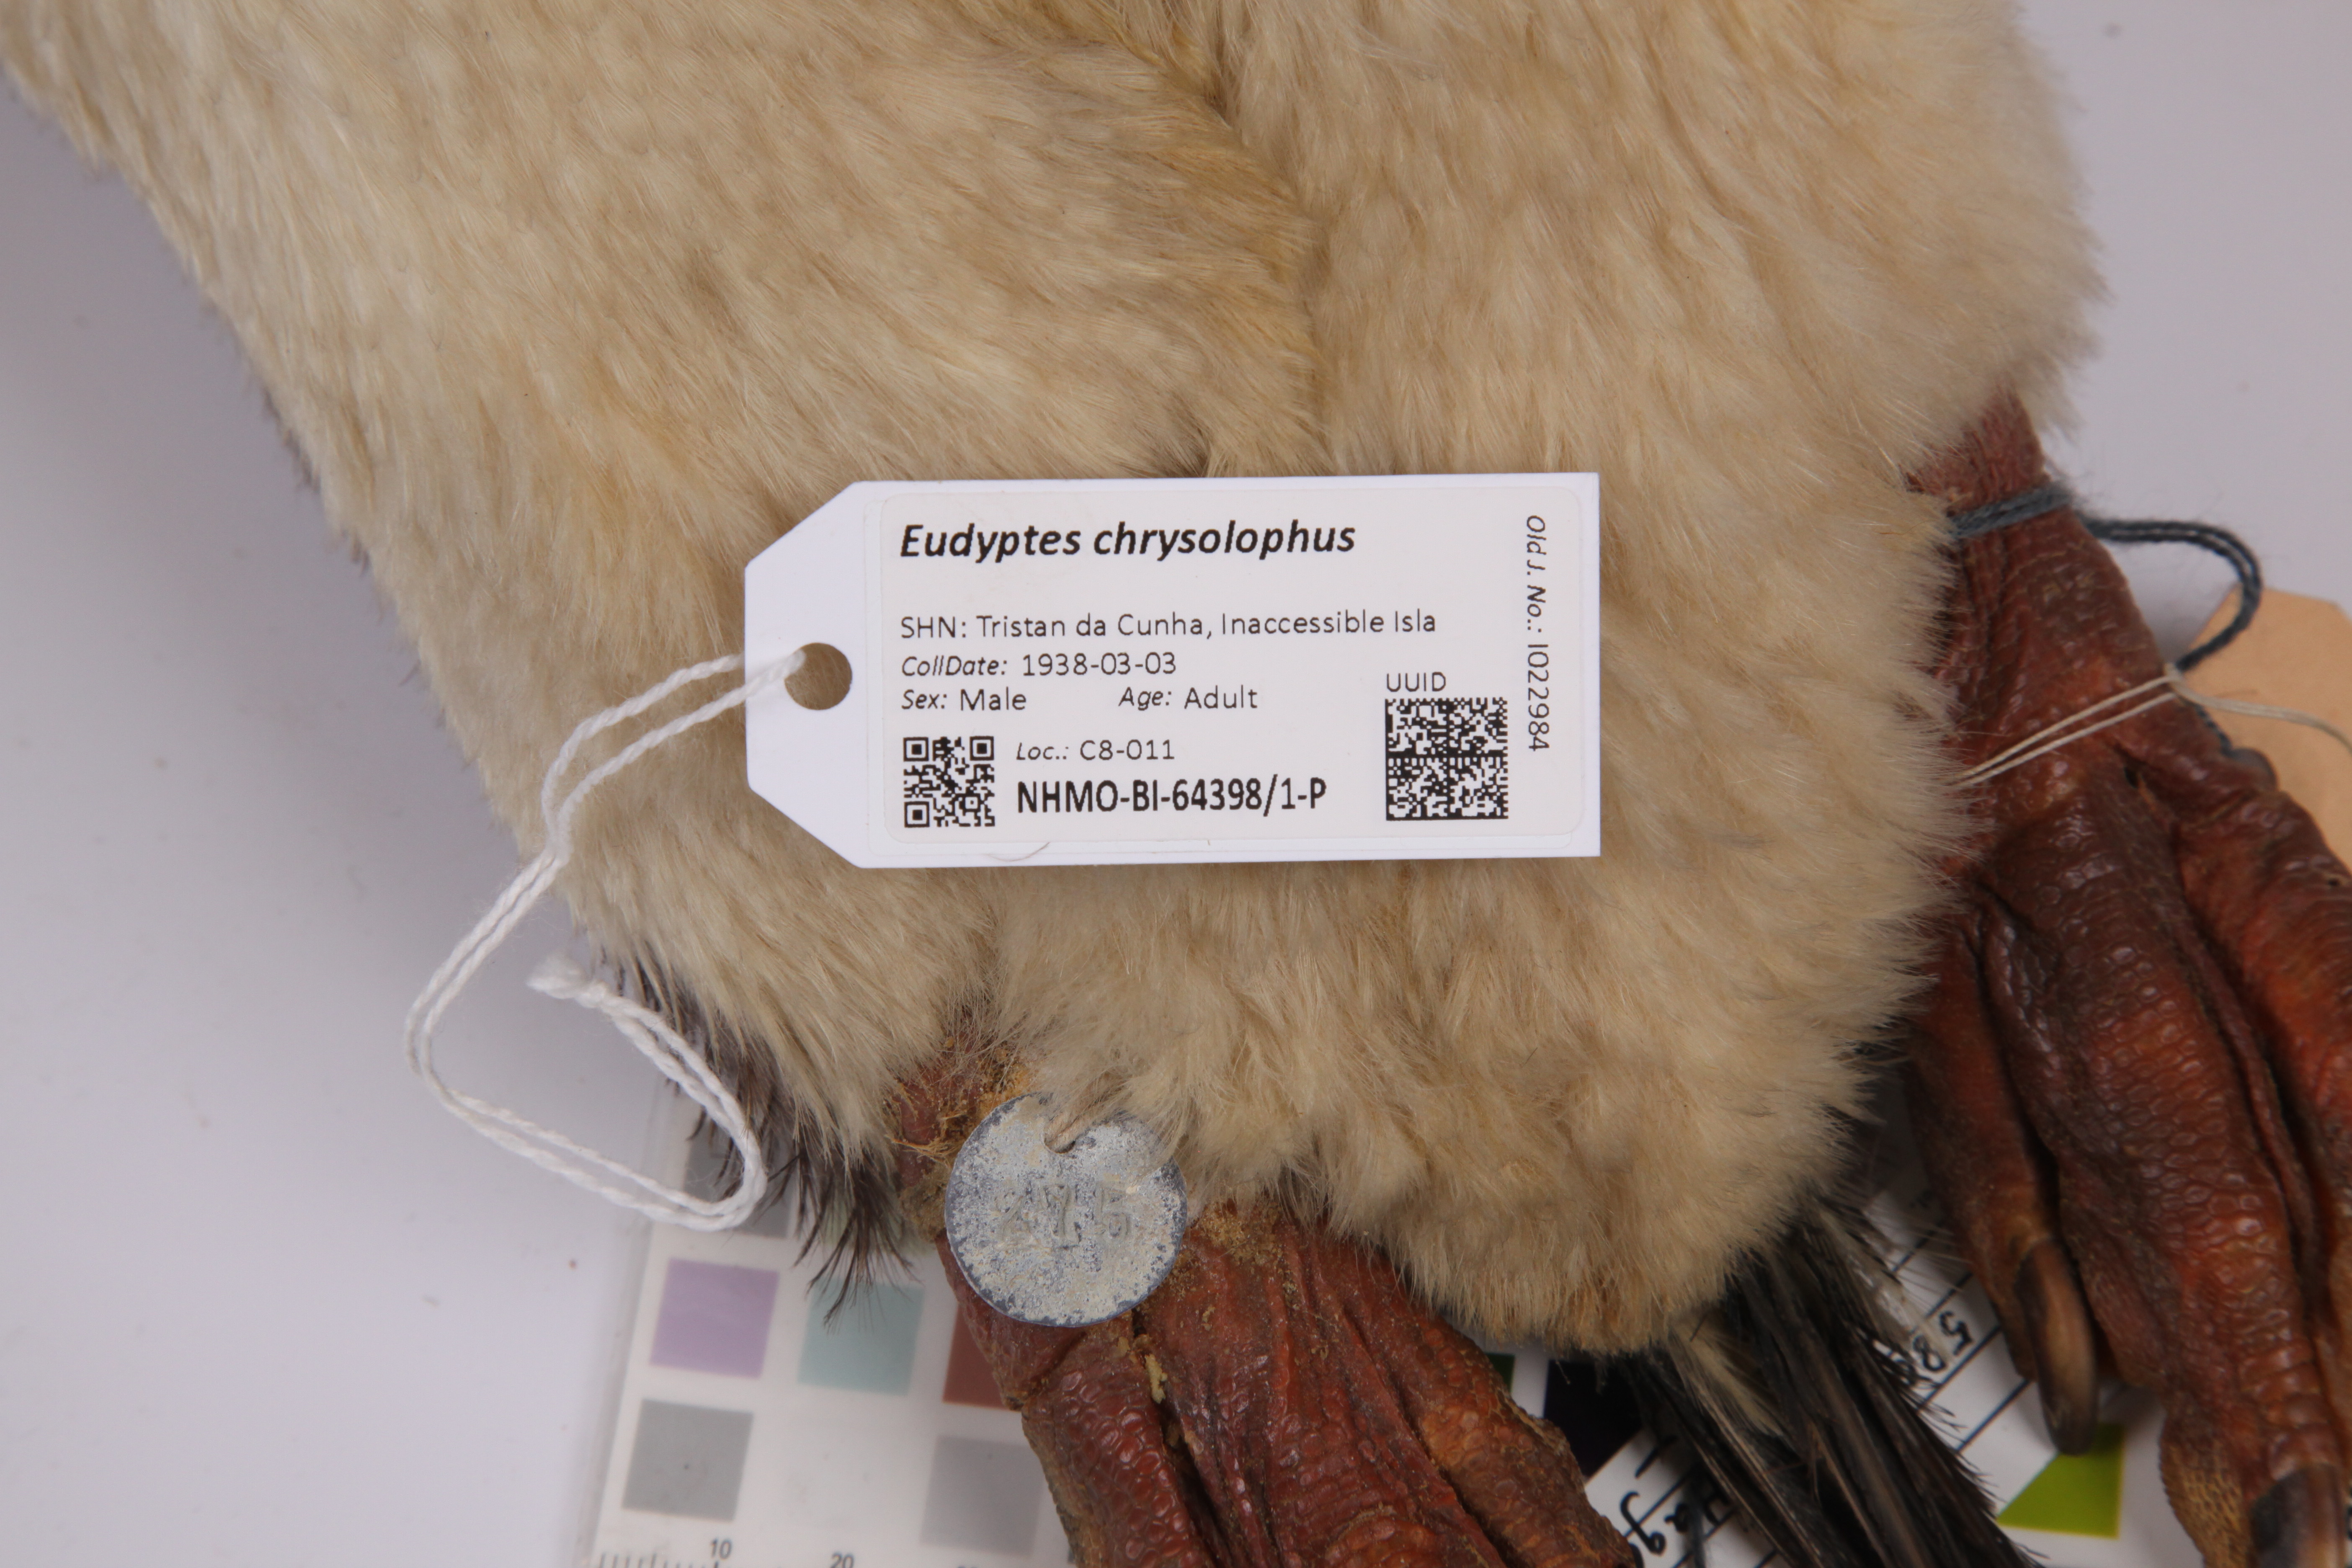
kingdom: Animalia
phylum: Chordata
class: Aves
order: Sphenisciformes
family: Spheniscidae
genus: Eudyptes
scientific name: Eudyptes chrysolophus
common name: Macaroni penguin
